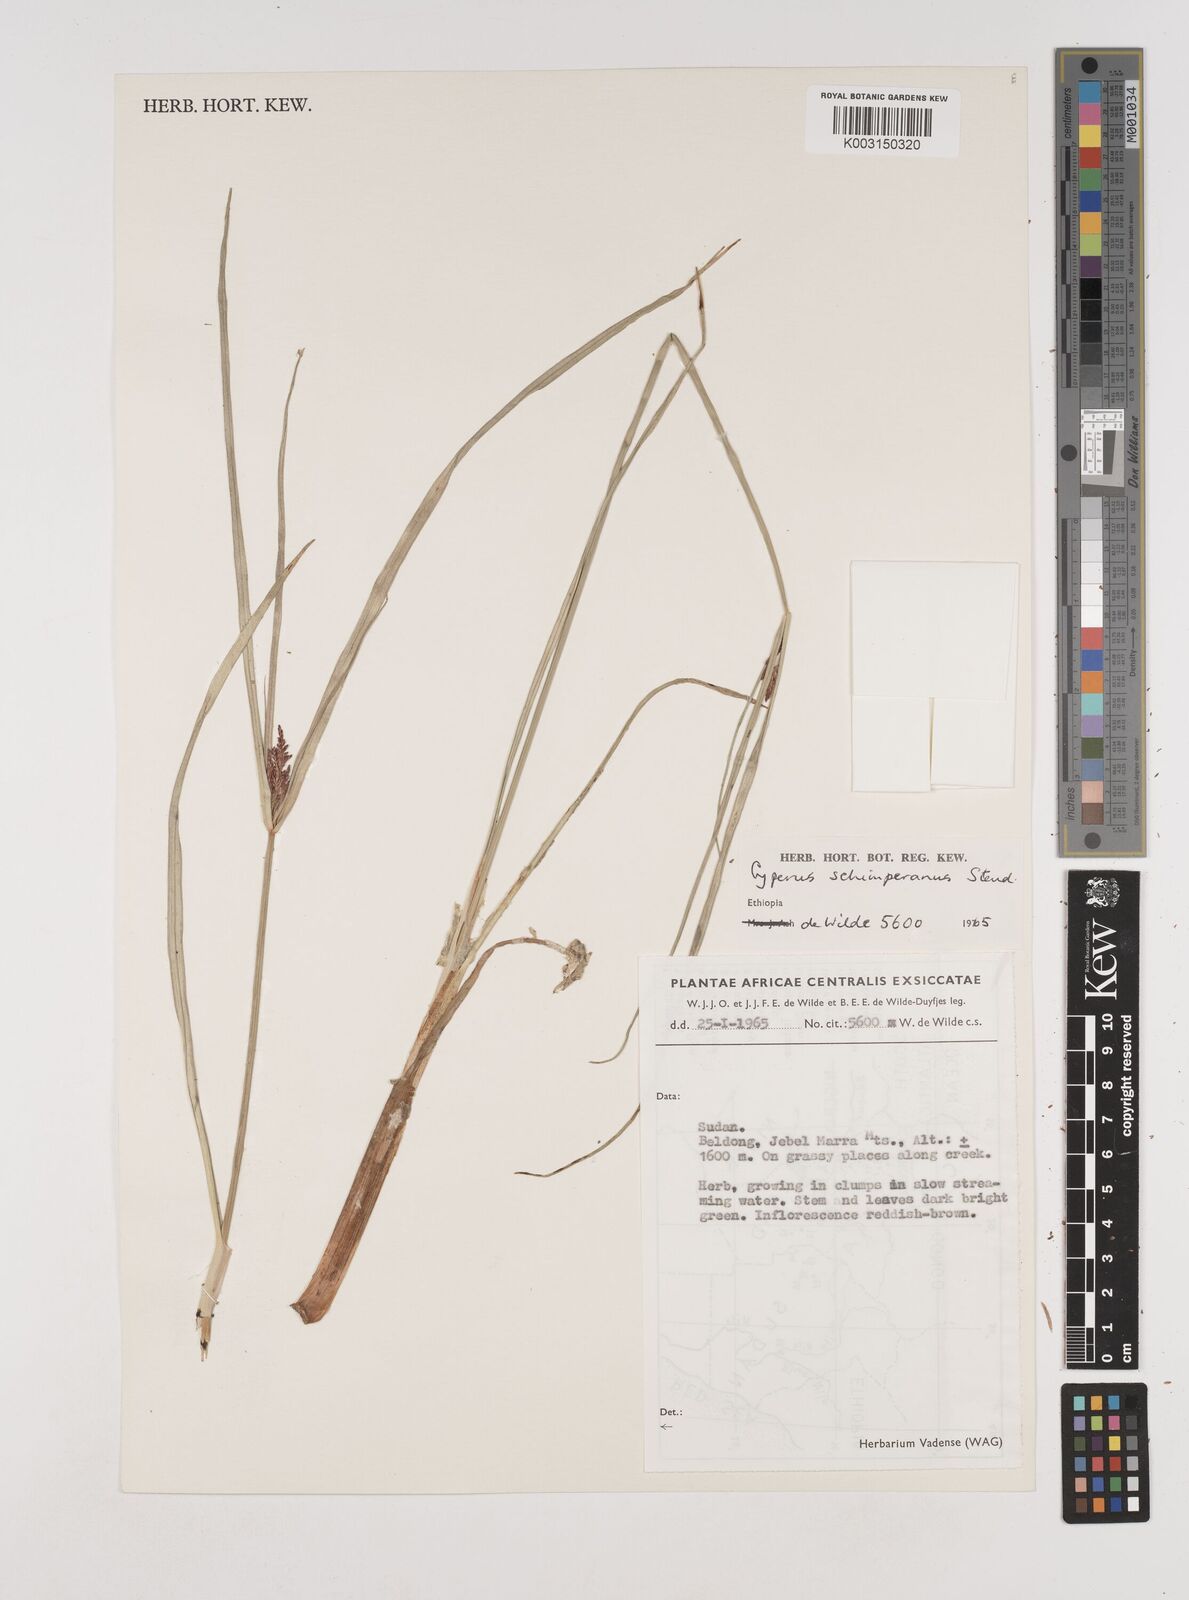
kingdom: Plantae
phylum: Tracheophyta
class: Liliopsida
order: Poales
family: Cyperaceae
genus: Cyperus
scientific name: Cyperus schimperianus
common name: Schimper flatsedge
